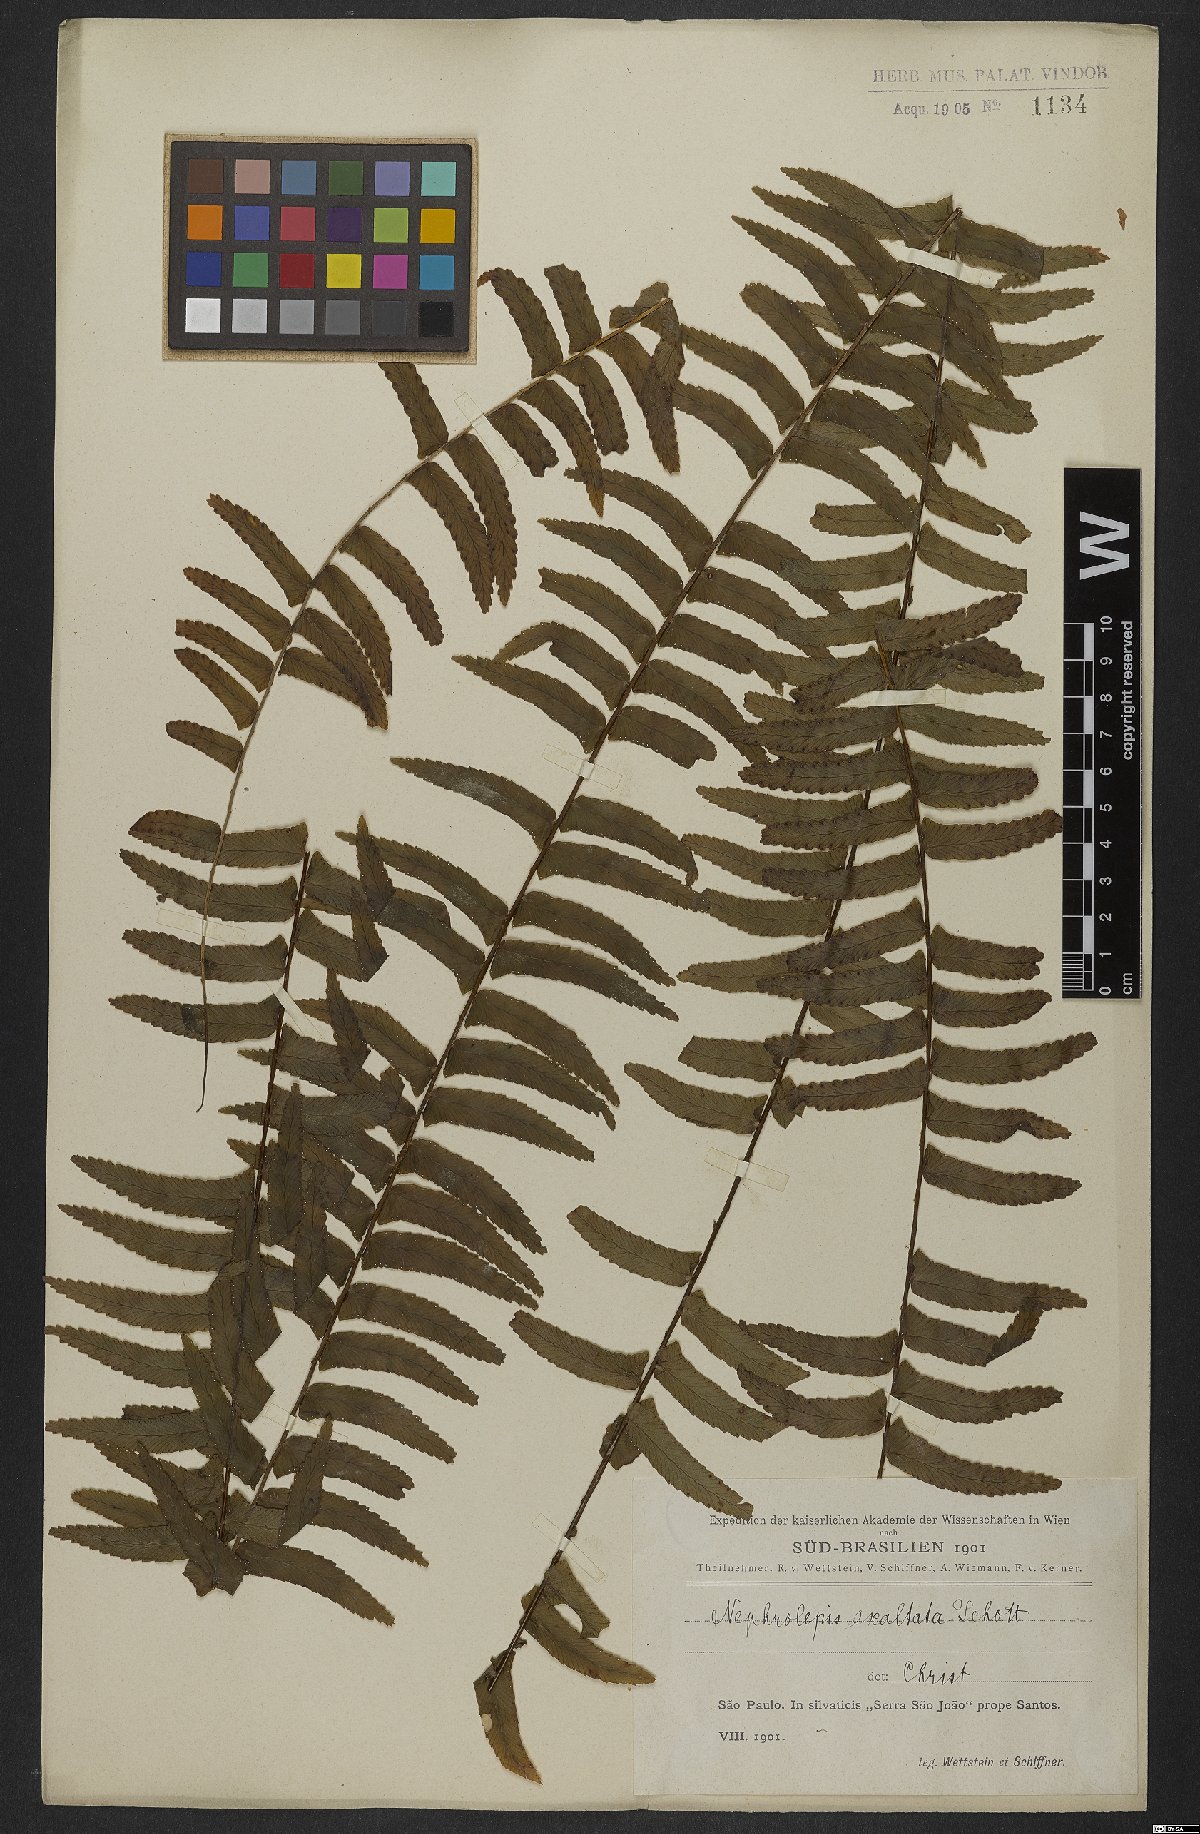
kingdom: Plantae
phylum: Tracheophyta
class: Polypodiopsida
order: Polypodiales
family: Nephrolepidaceae
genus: Nephrolepis
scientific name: Nephrolepis exaltata
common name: Sword fern
